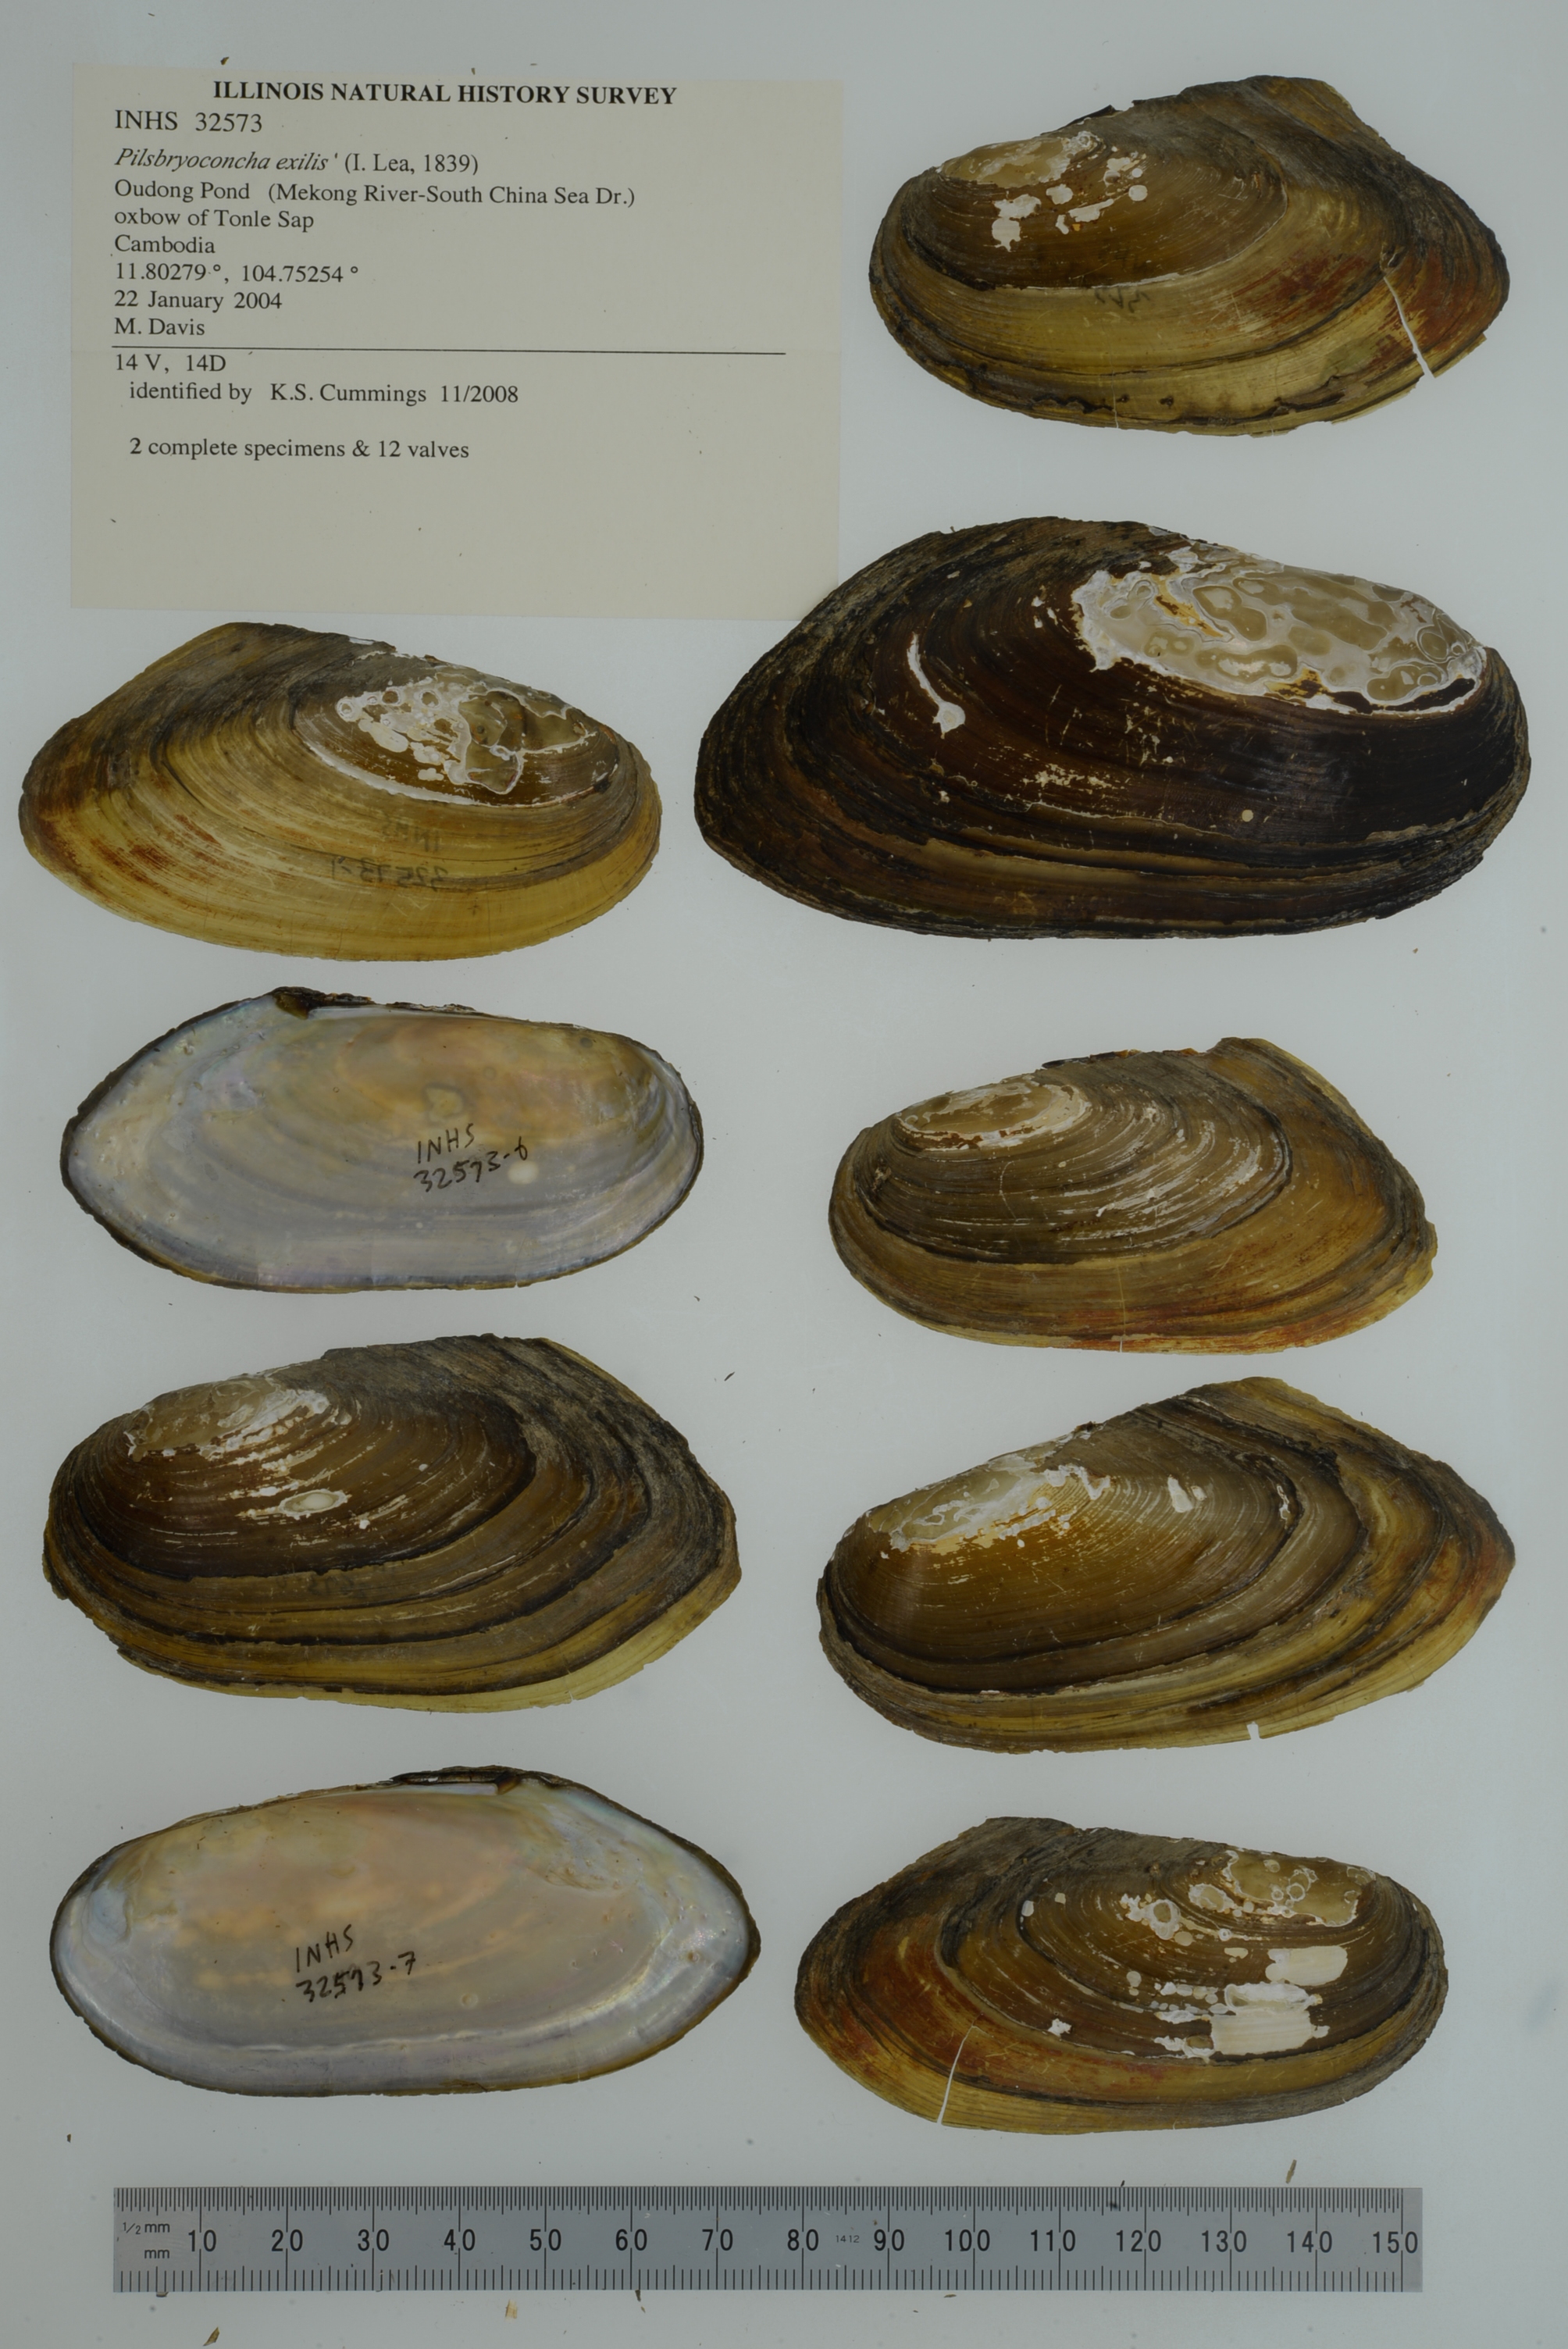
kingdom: Animalia
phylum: Mollusca
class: Bivalvia
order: Unionida
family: Unionidae
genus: Pilsbryoconcha
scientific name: Pilsbryoconcha exilis
